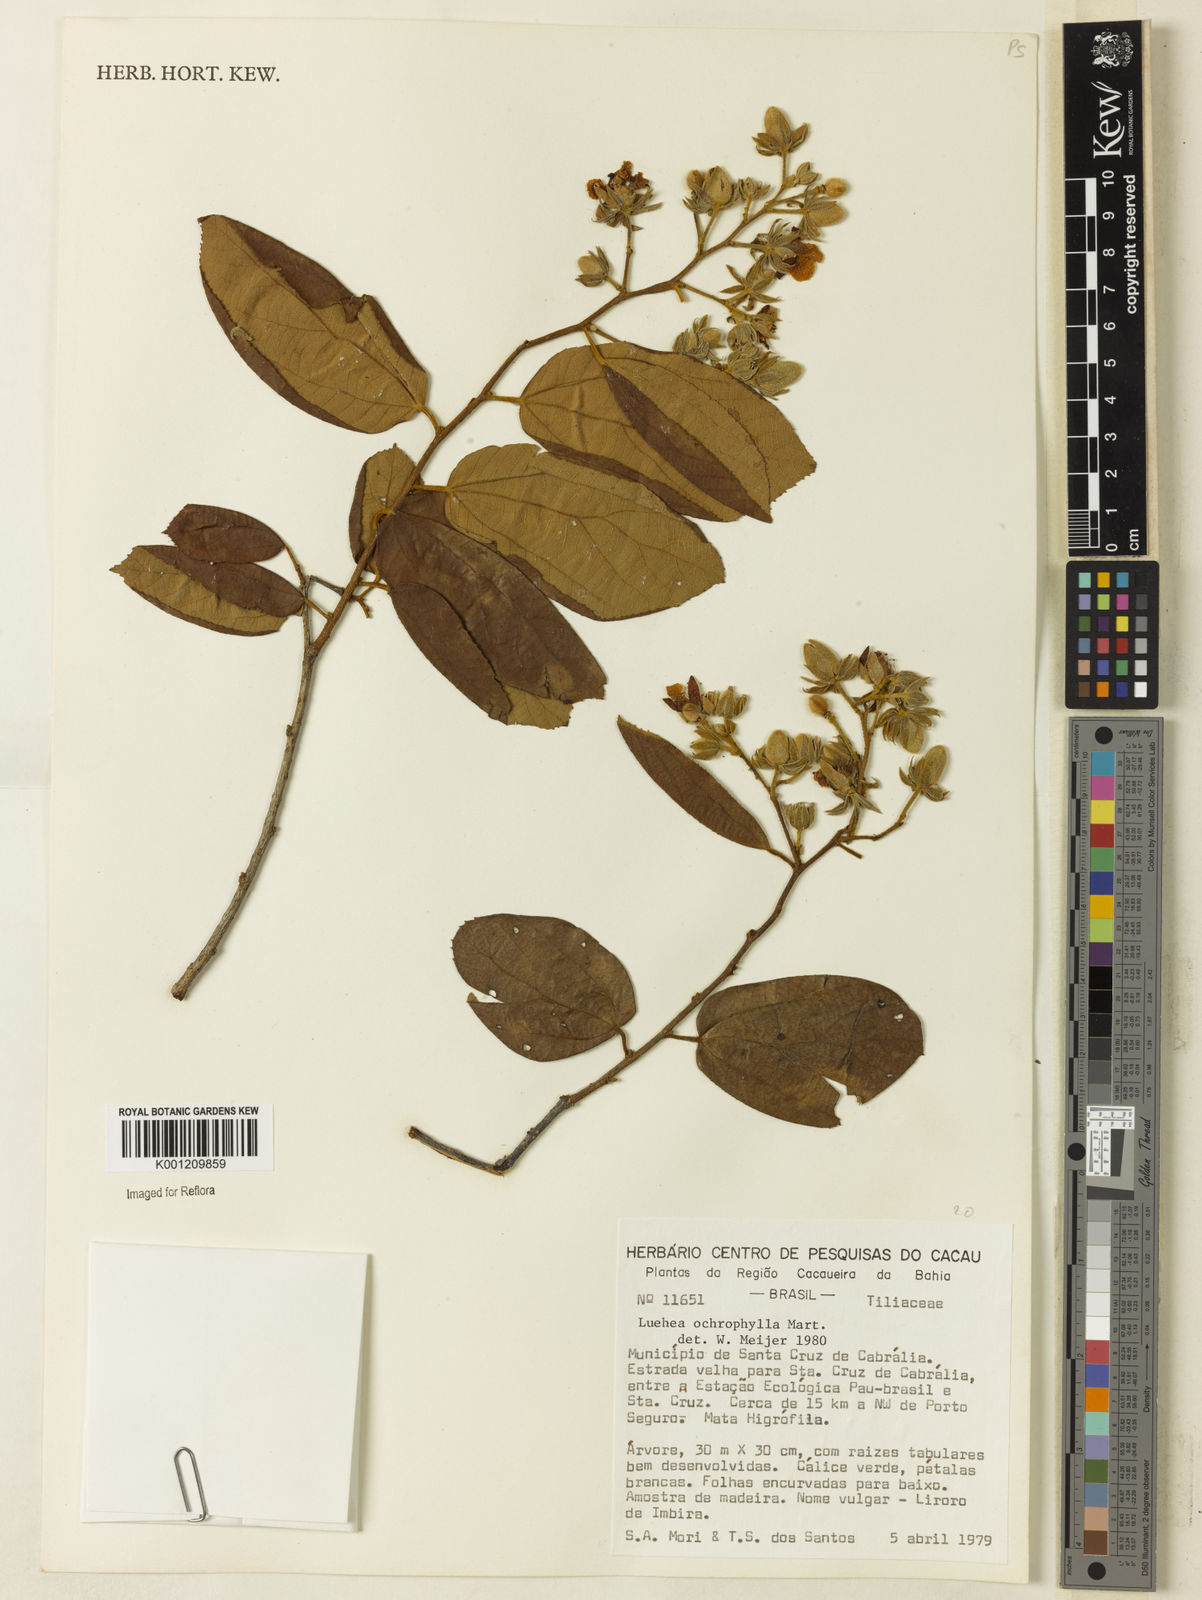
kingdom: Plantae
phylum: Tracheophyta
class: Magnoliopsida
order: Malvales
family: Malvaceae
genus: Luehea
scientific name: Luehea ochrophylla
